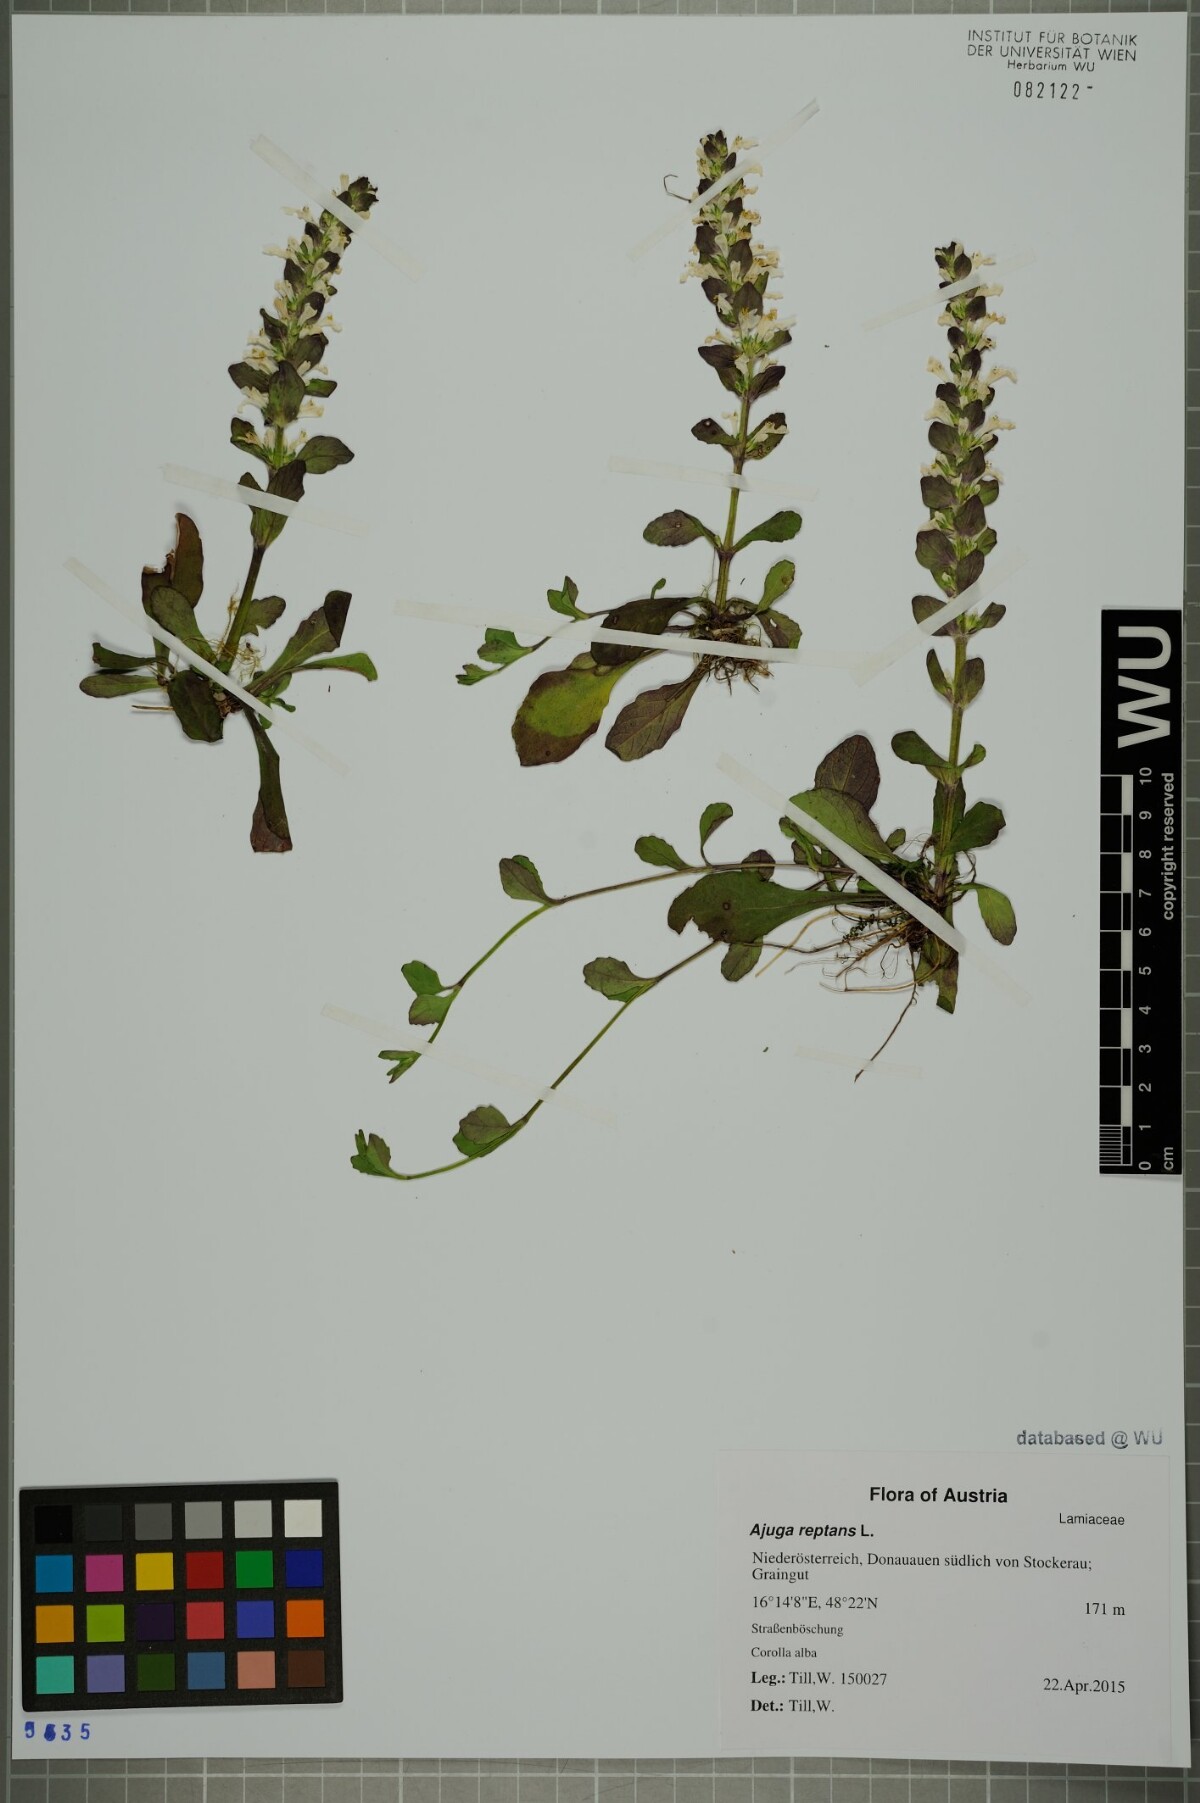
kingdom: Plantae
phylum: Tracheophyta
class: Magnoliopsida
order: Lamiales
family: Lamiaceae
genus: Ajuga
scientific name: Ajuga reptans
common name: Bugle
